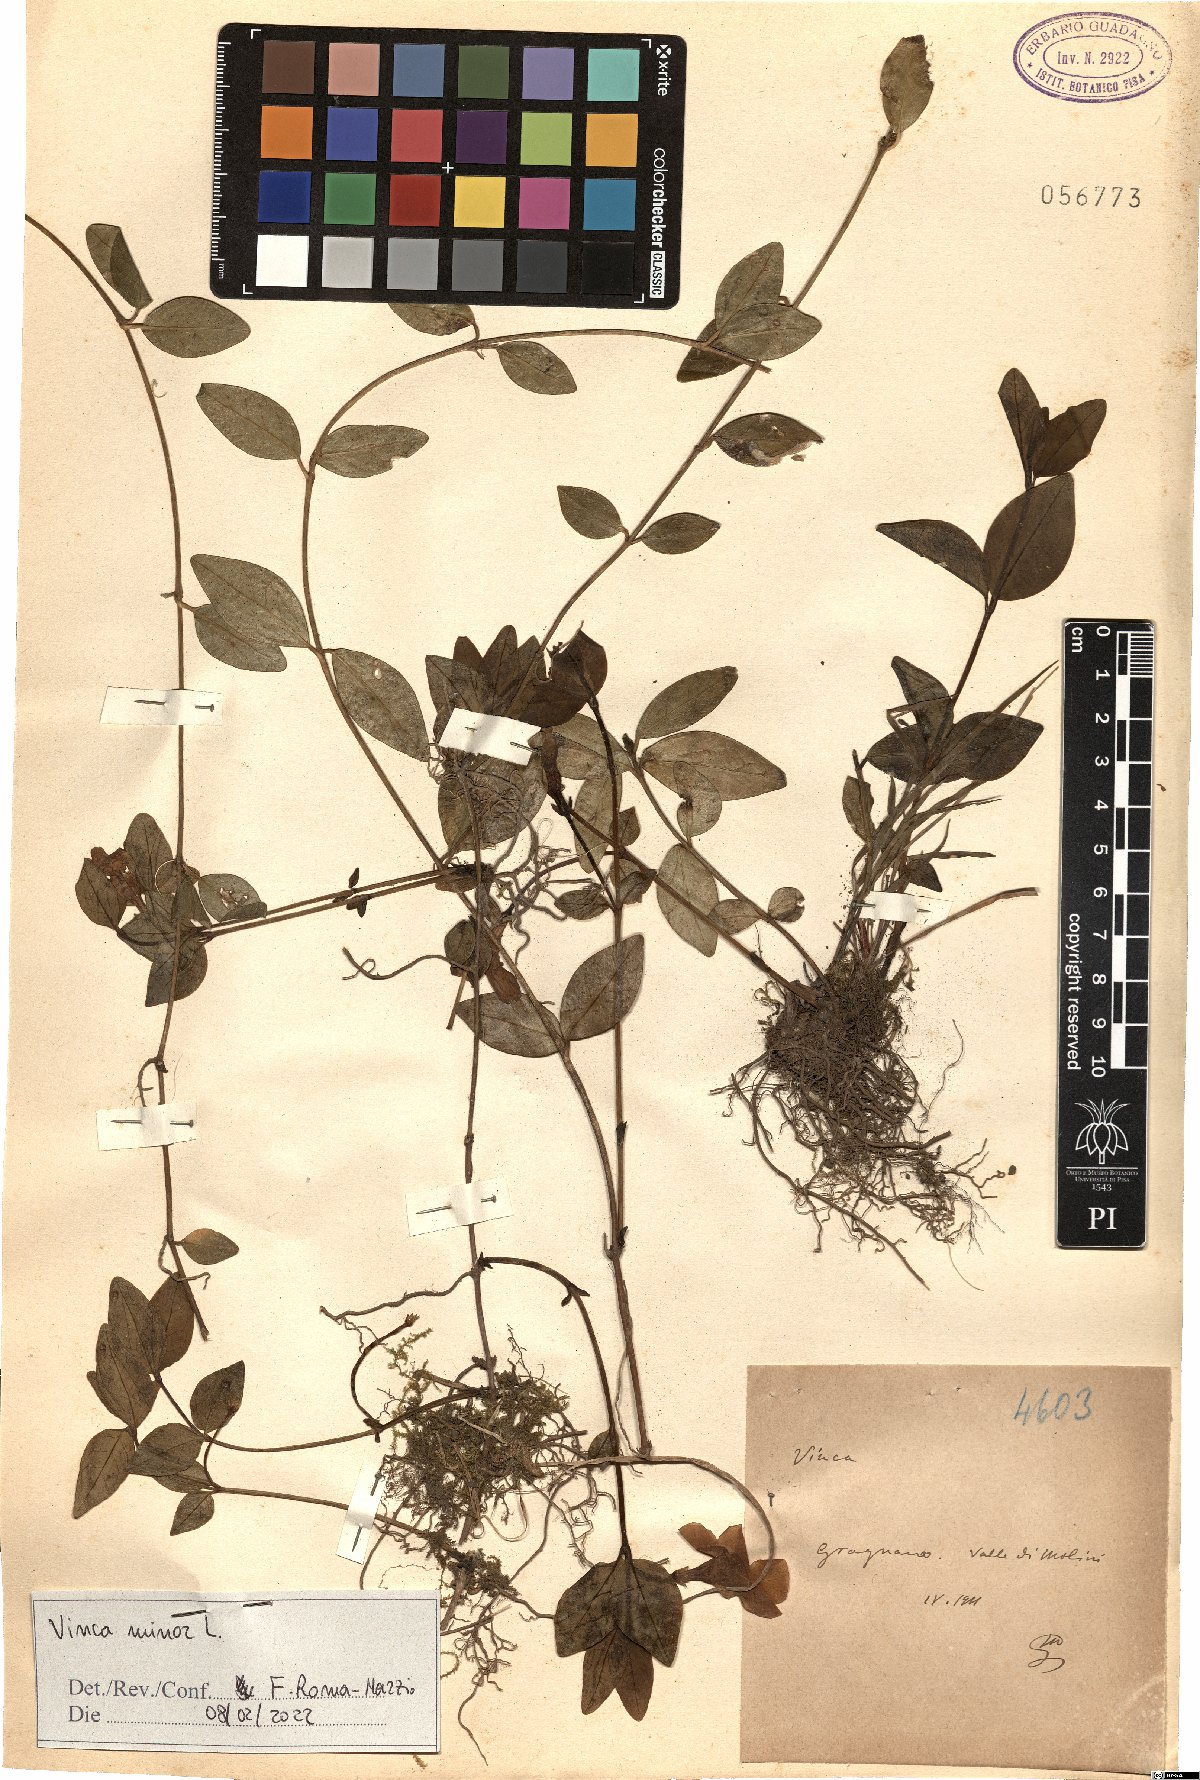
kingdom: Plantae
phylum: Tracheophyta
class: Magnoliopsida
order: Gentianales
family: Apocynaceae
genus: Vinca
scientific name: Vinca minor
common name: Lesser periwinkle
